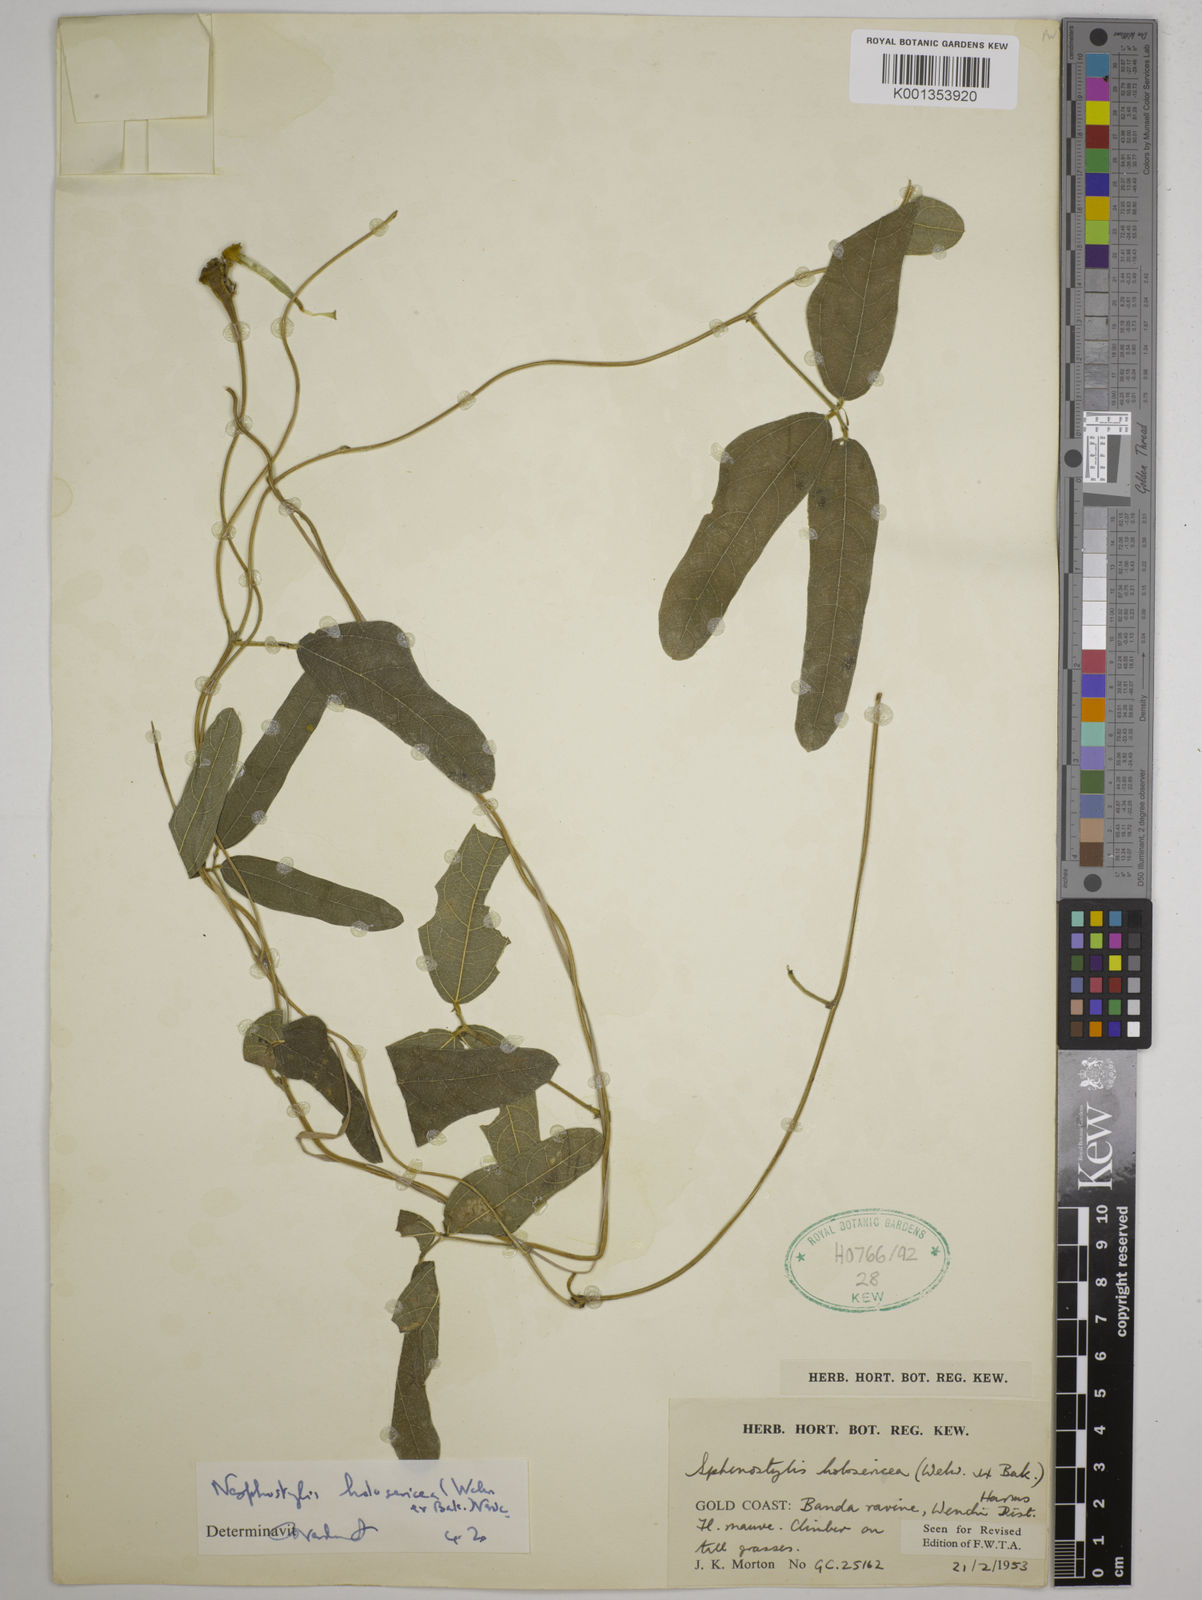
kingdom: Plantae
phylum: Tracheophyta
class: Magnoliopsida
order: Fabales
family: Fabaceae
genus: Nesphostylis
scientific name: Nesphostylis holosericea
